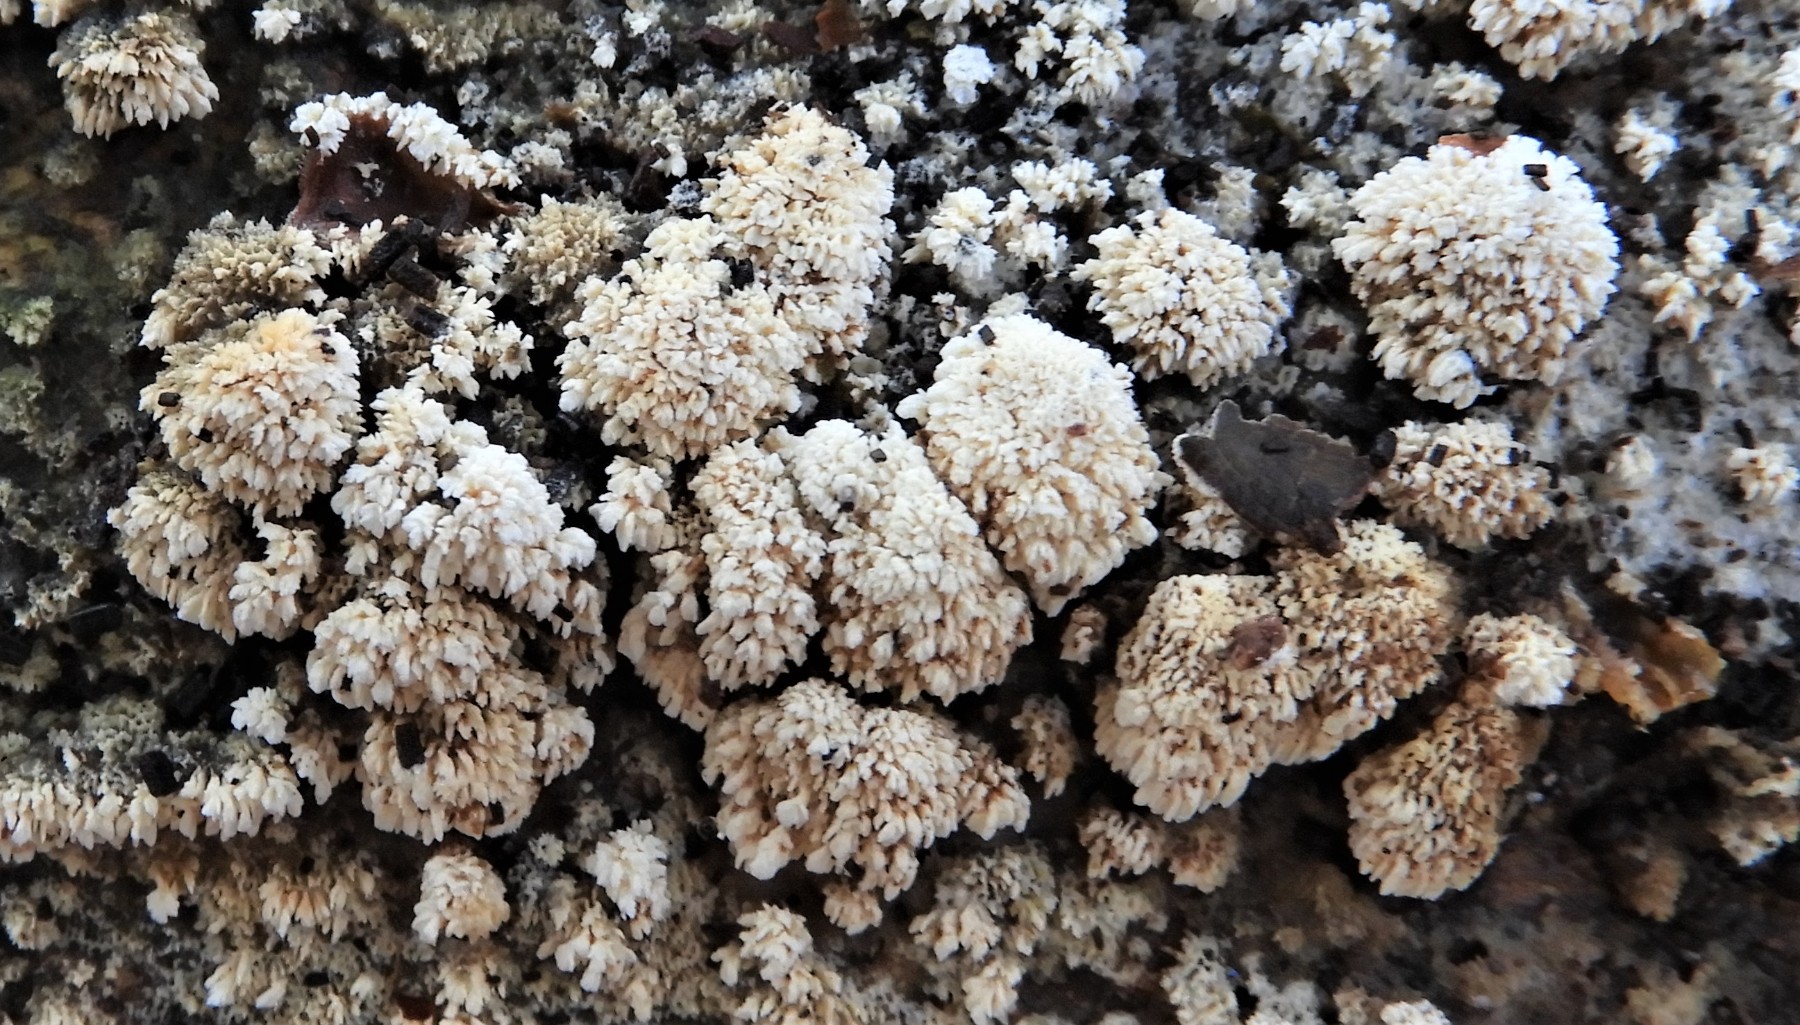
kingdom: Fungi
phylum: Basidiomycota
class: Agaricomycetes
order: Hymenochaetales
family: Schizoporaceae
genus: Schizopora
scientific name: Schizopora paradoxa
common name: hvid tandsvamp
